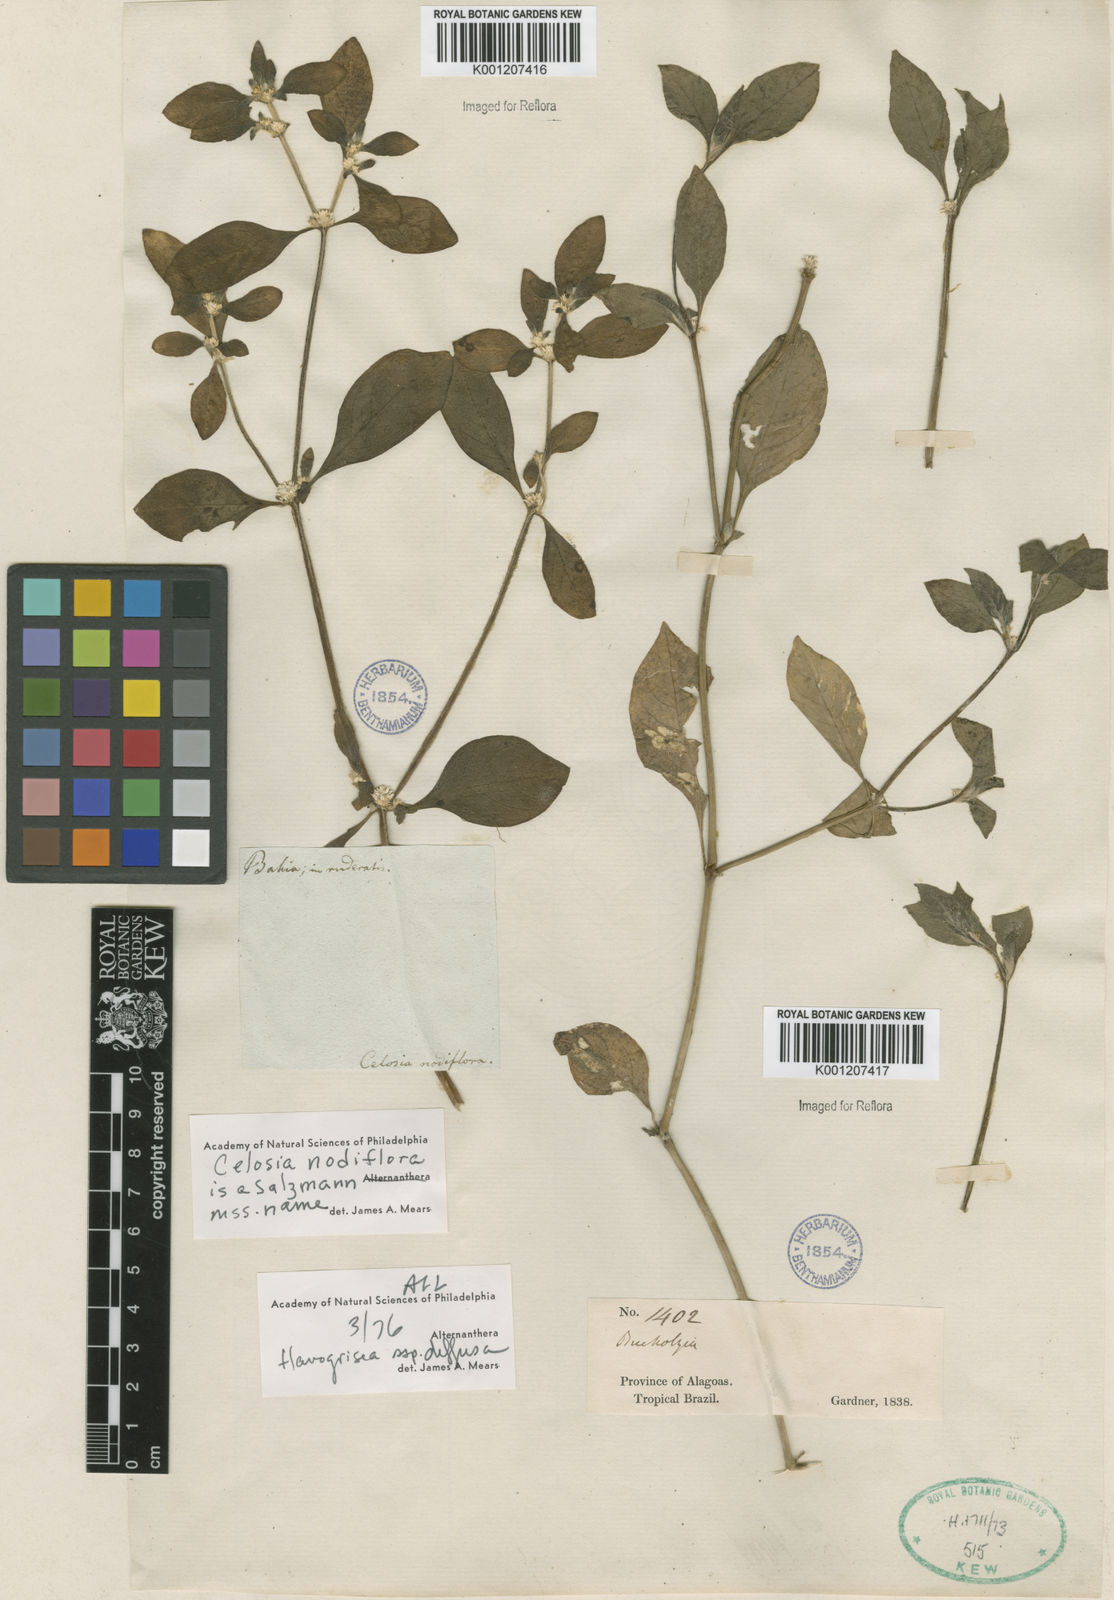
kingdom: Plantae
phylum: Tracheophyta
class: Magnoliopsida
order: Caryophyllales
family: Amaranthaceae
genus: Alternanthera
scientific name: Alternanthera halimifolia
